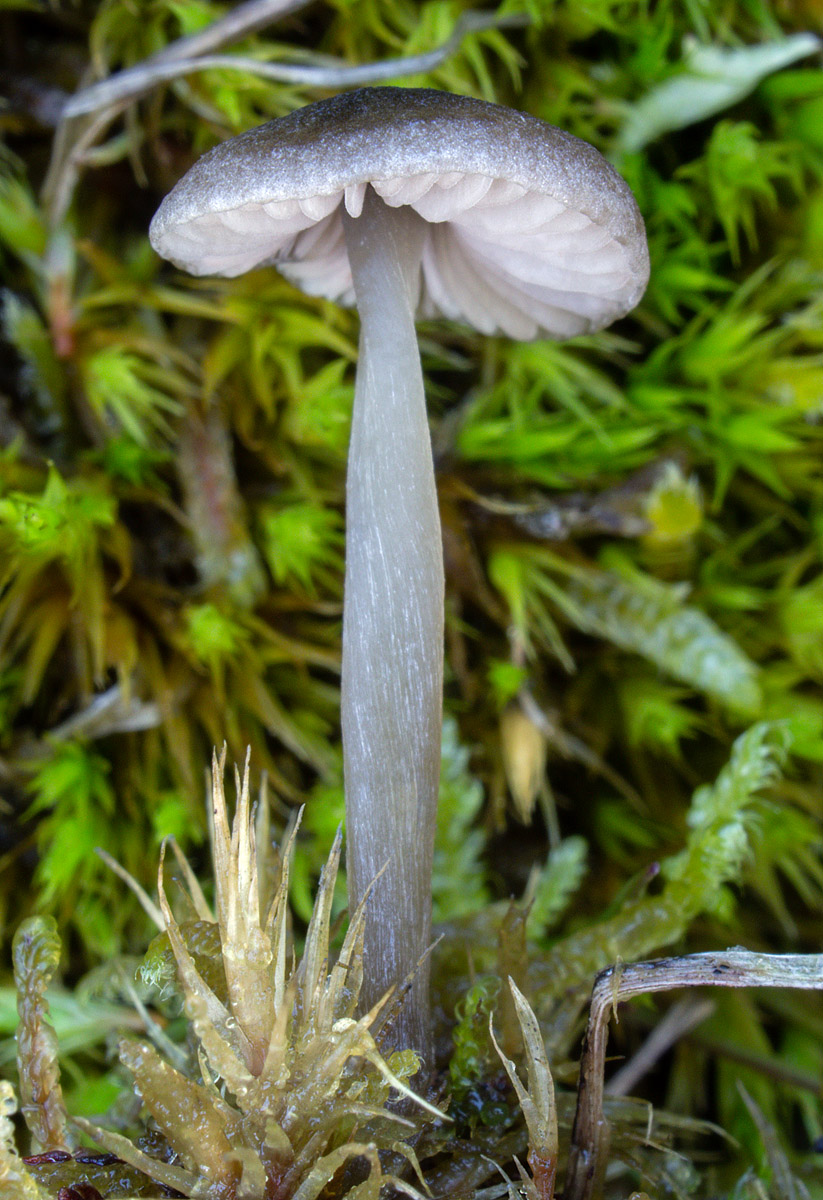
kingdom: Fungi
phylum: Basidiomycota
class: Agaricomycetes
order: Agaricales
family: Entolomataceae
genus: Entoloma
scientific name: Entoloma fernandae
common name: filtet rødblad
